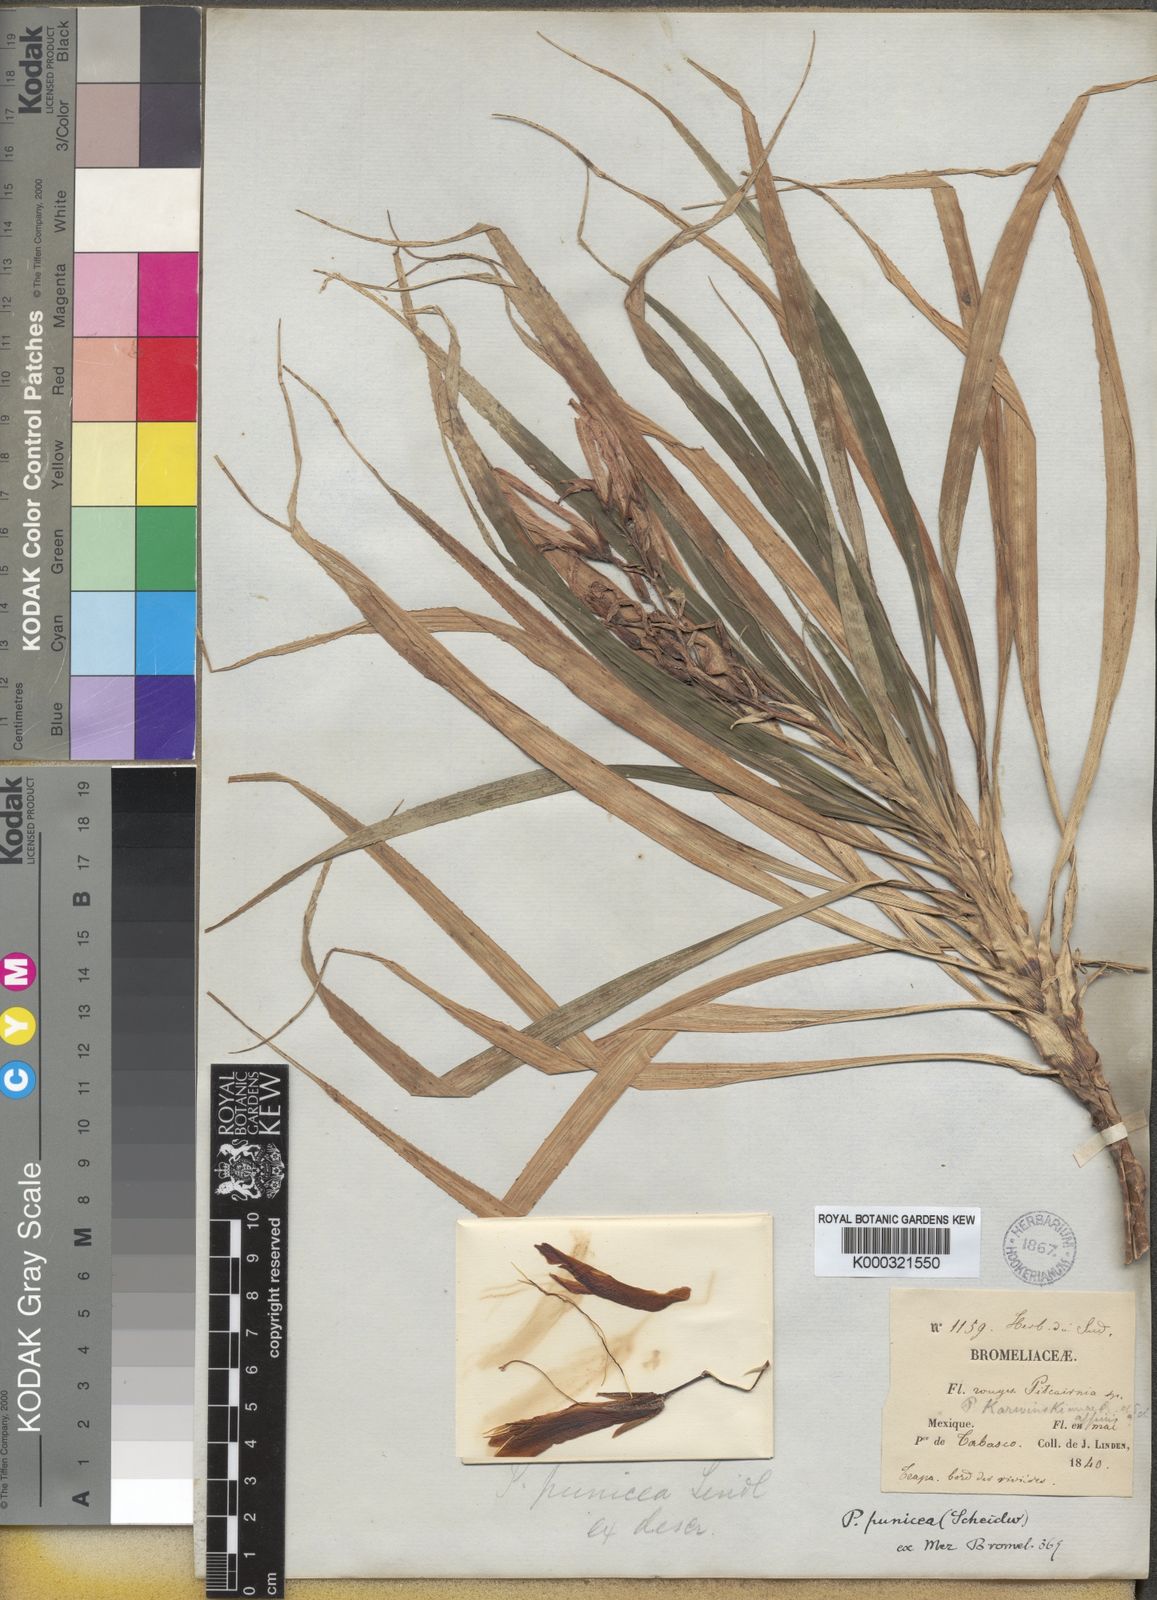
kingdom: Plantae
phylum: Tracheophyta
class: Liliopsida
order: Poales
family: Bromeliaceae
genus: Pitcairnia
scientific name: Pitcairnia punicea
